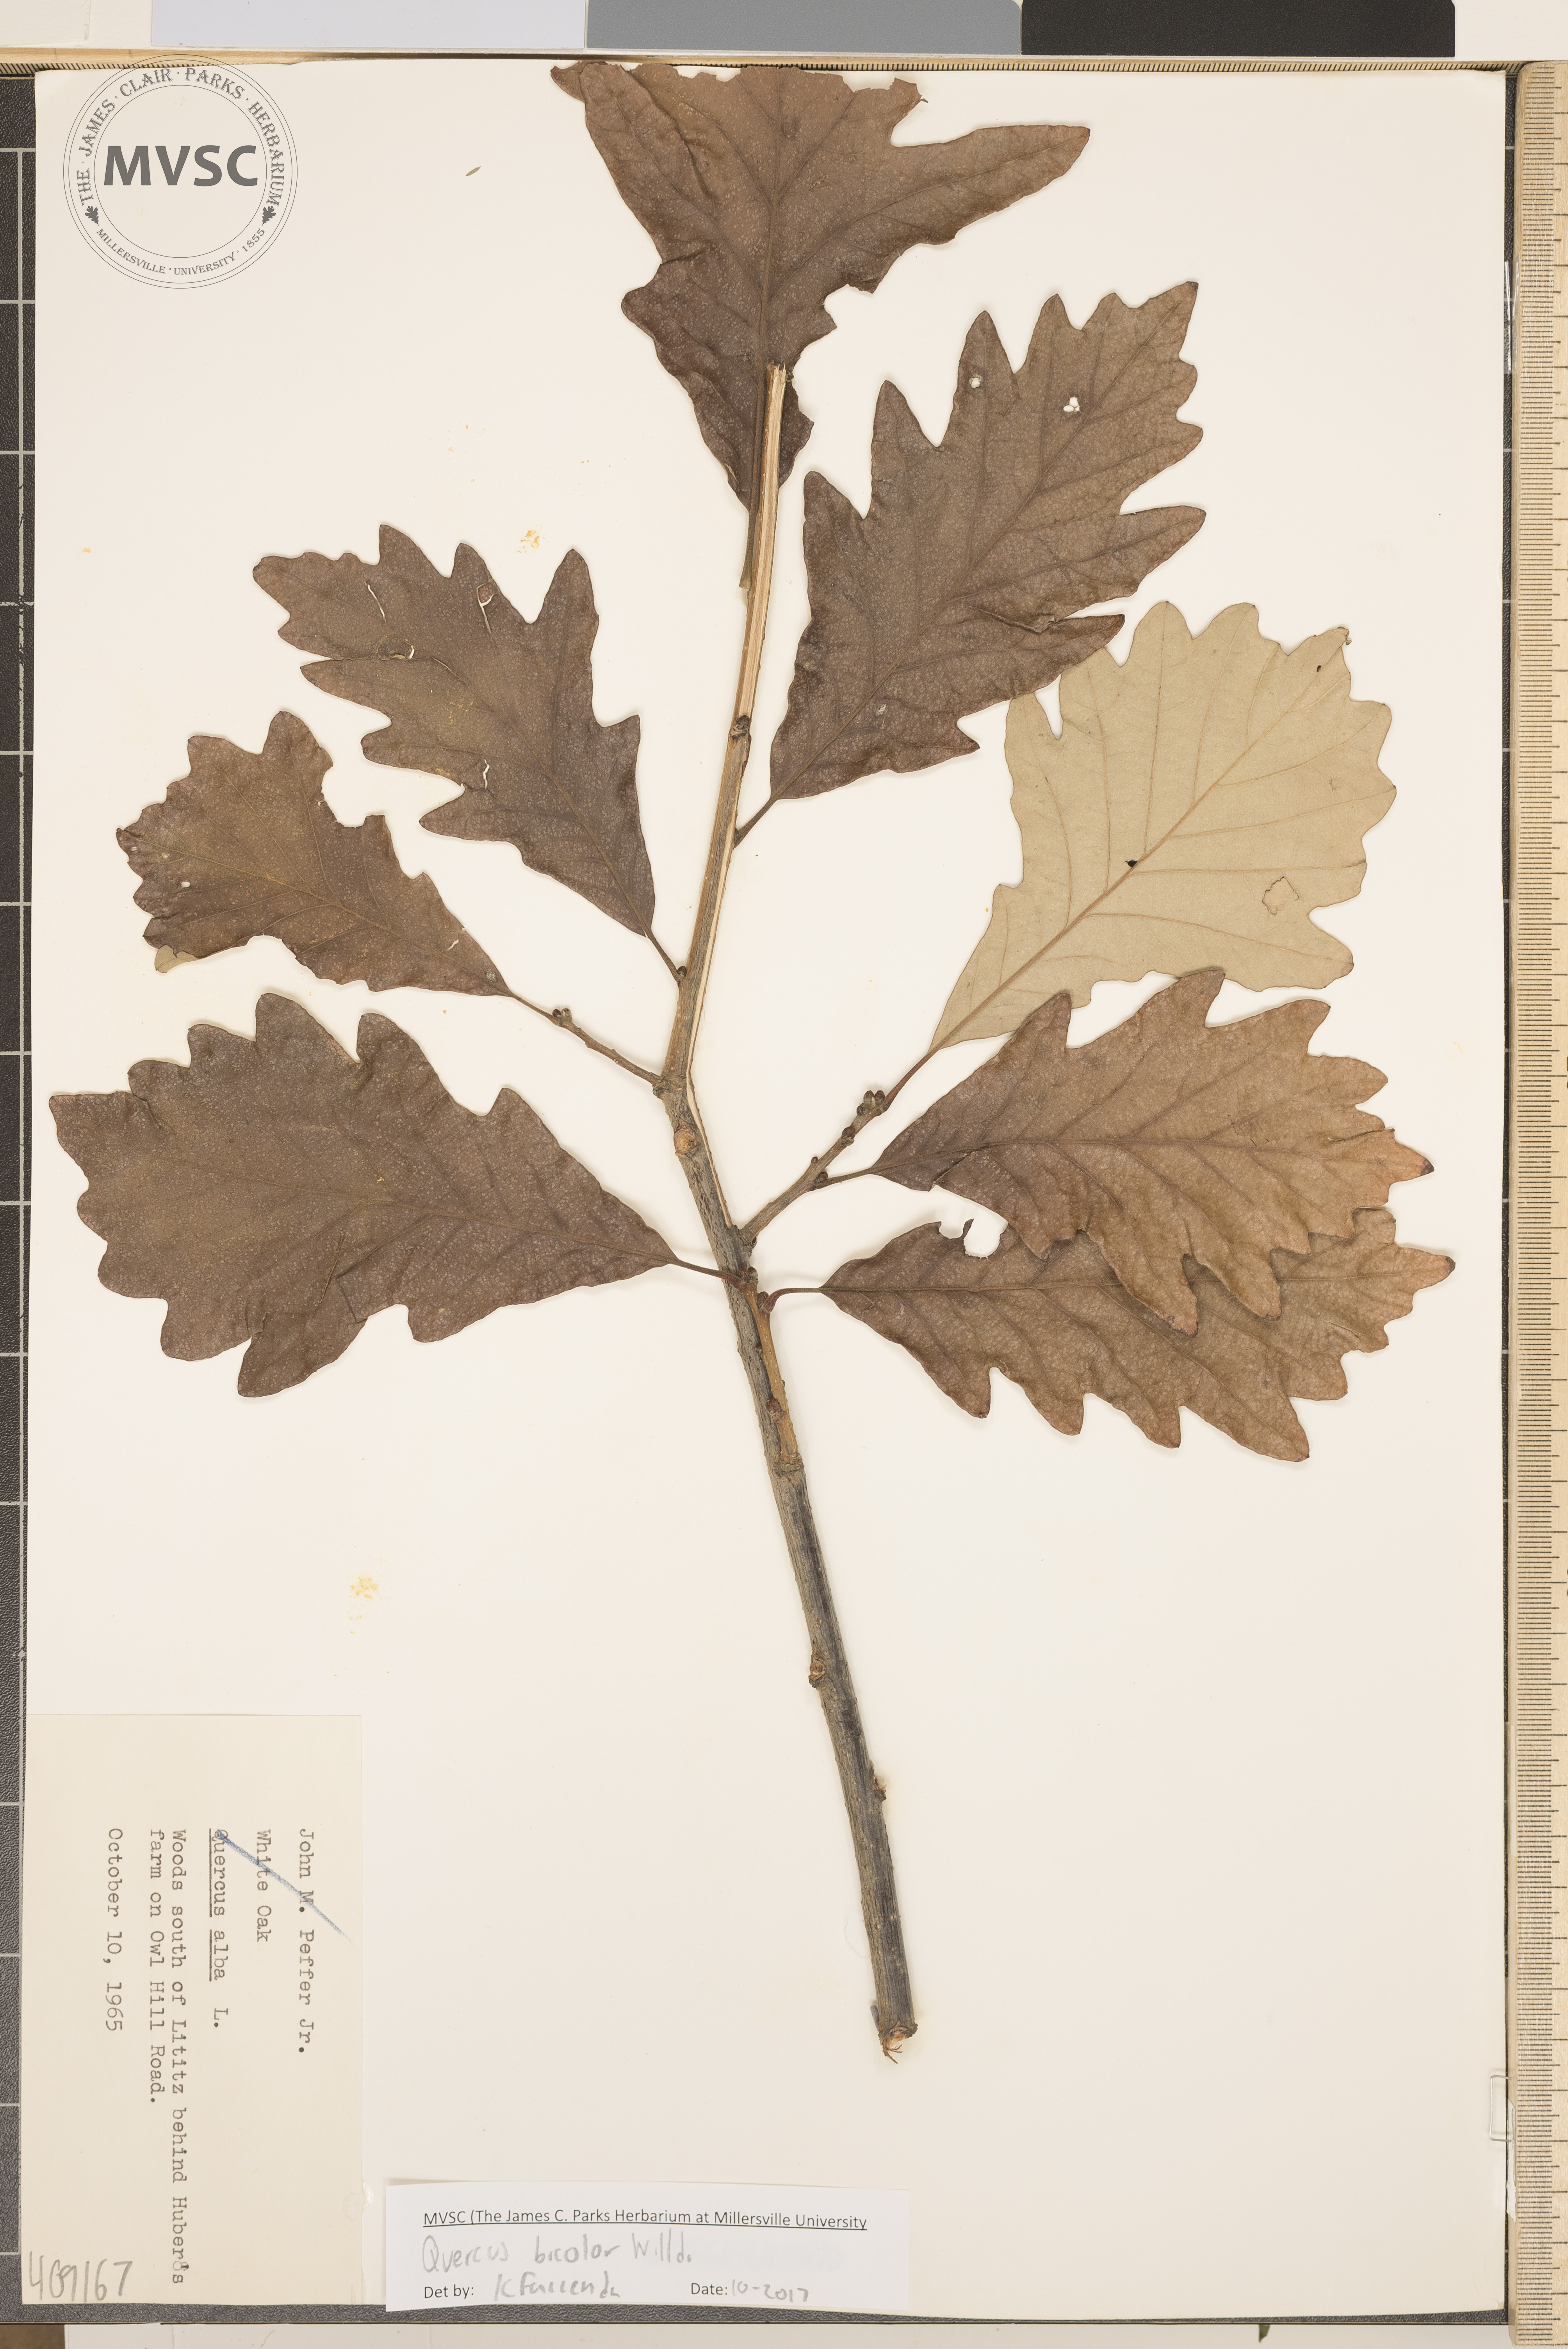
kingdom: Plantae
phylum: Tracheophyta
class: Magnoliopsida
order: Fagales
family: Fagaceae
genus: Quercus
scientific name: Quercus bicolor
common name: Swamp white oak
